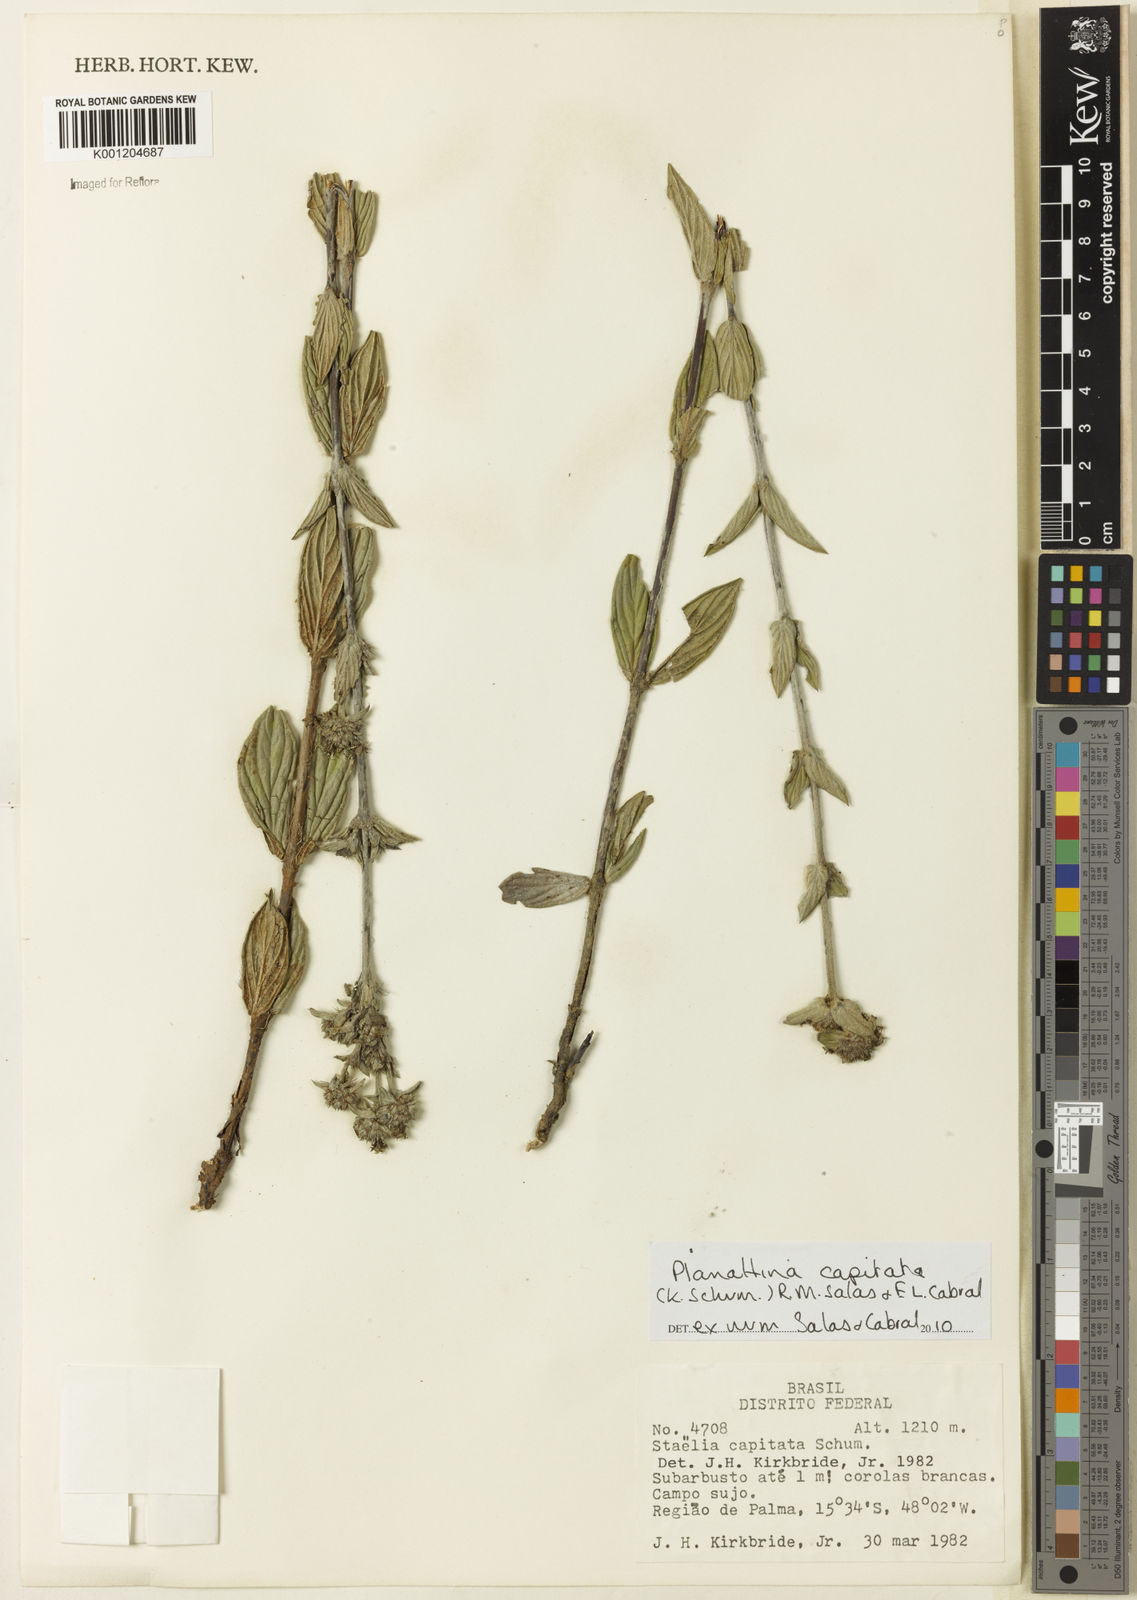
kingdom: Plantae
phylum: Tracheophyta
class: Magnoliopsida
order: Gentianales
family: Rubiaceae
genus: Planaltina
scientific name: Planaltina capitata
